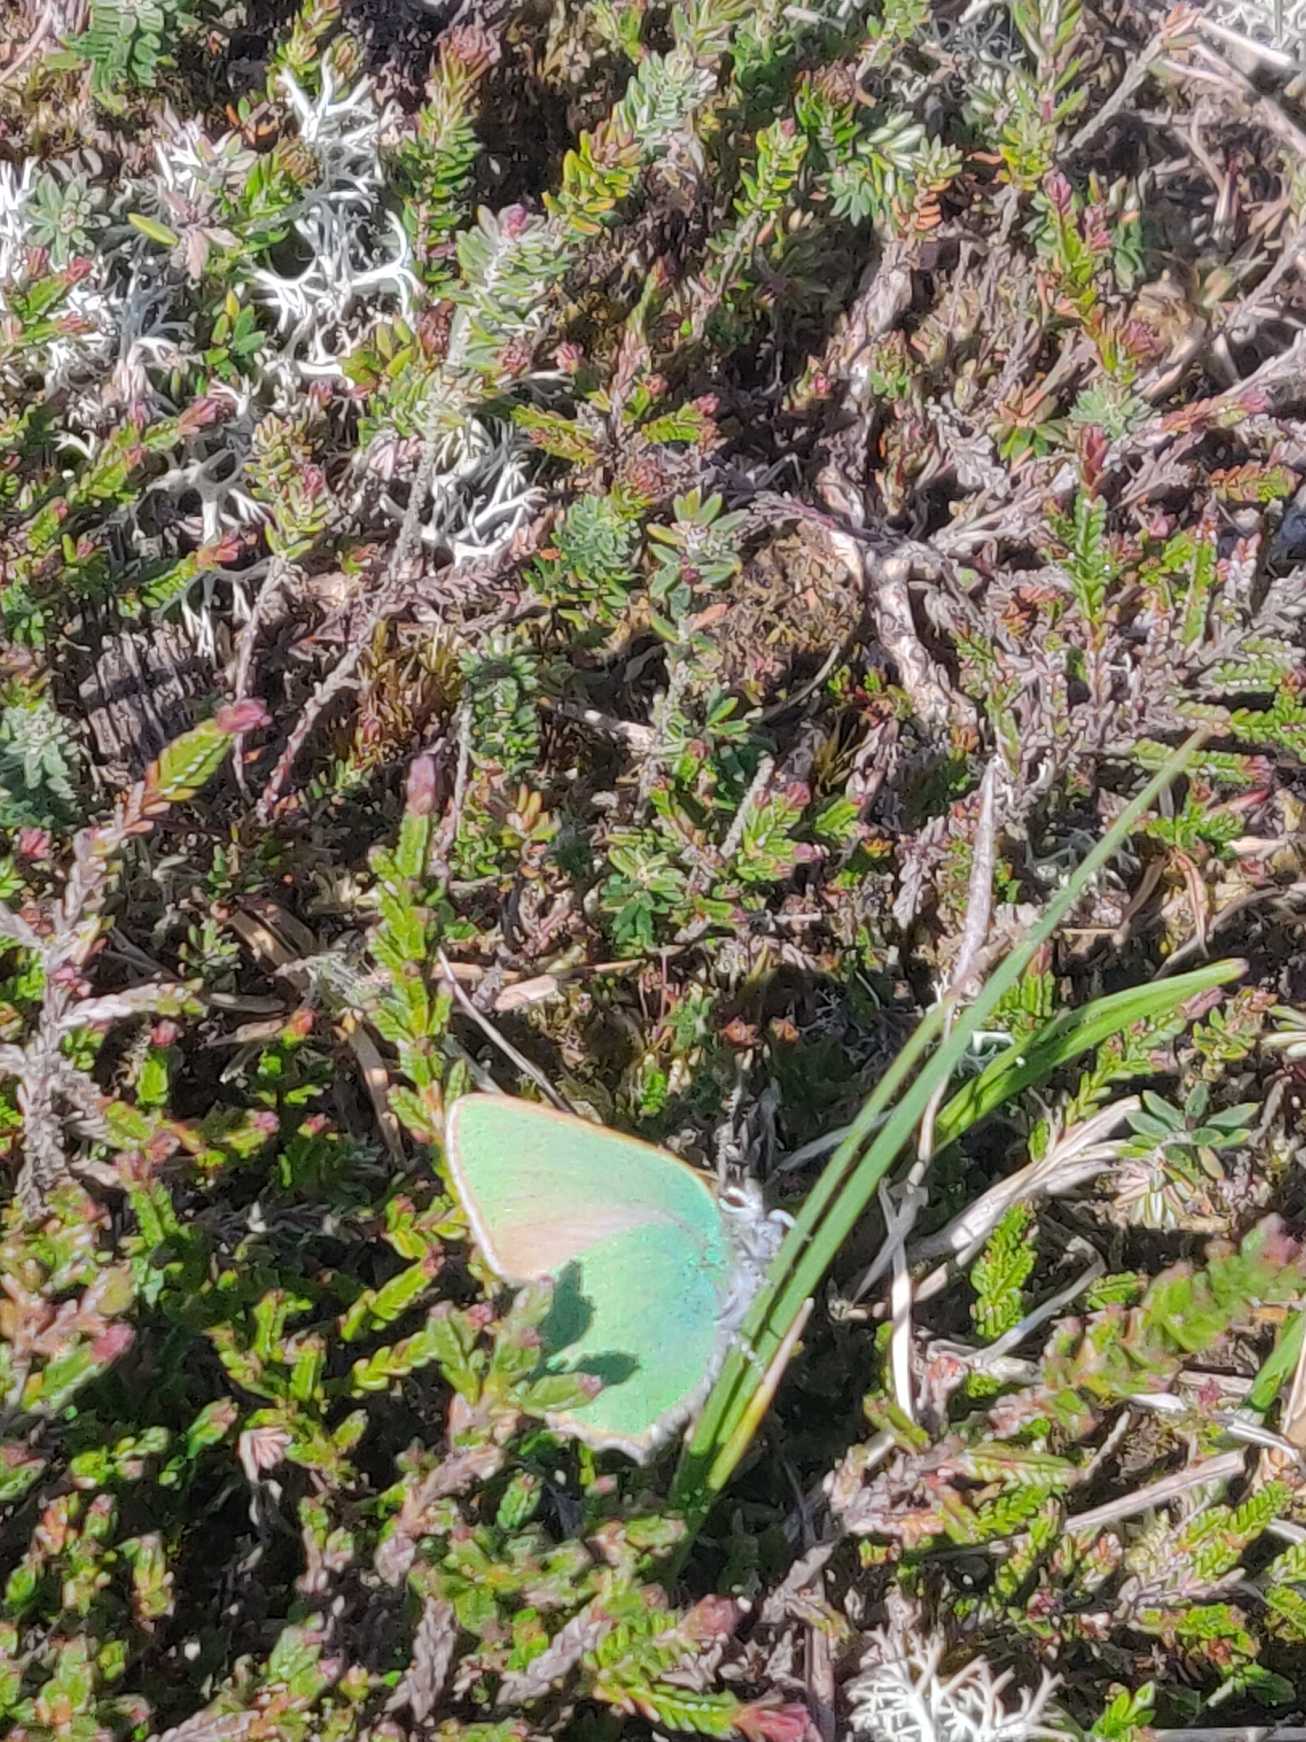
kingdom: Animalia
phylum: Arthropoda
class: Insecta
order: Lepidoptera
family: Lycaenidae
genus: Callophrys
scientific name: Callophrys rubi
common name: Grøn busksommerfugl
